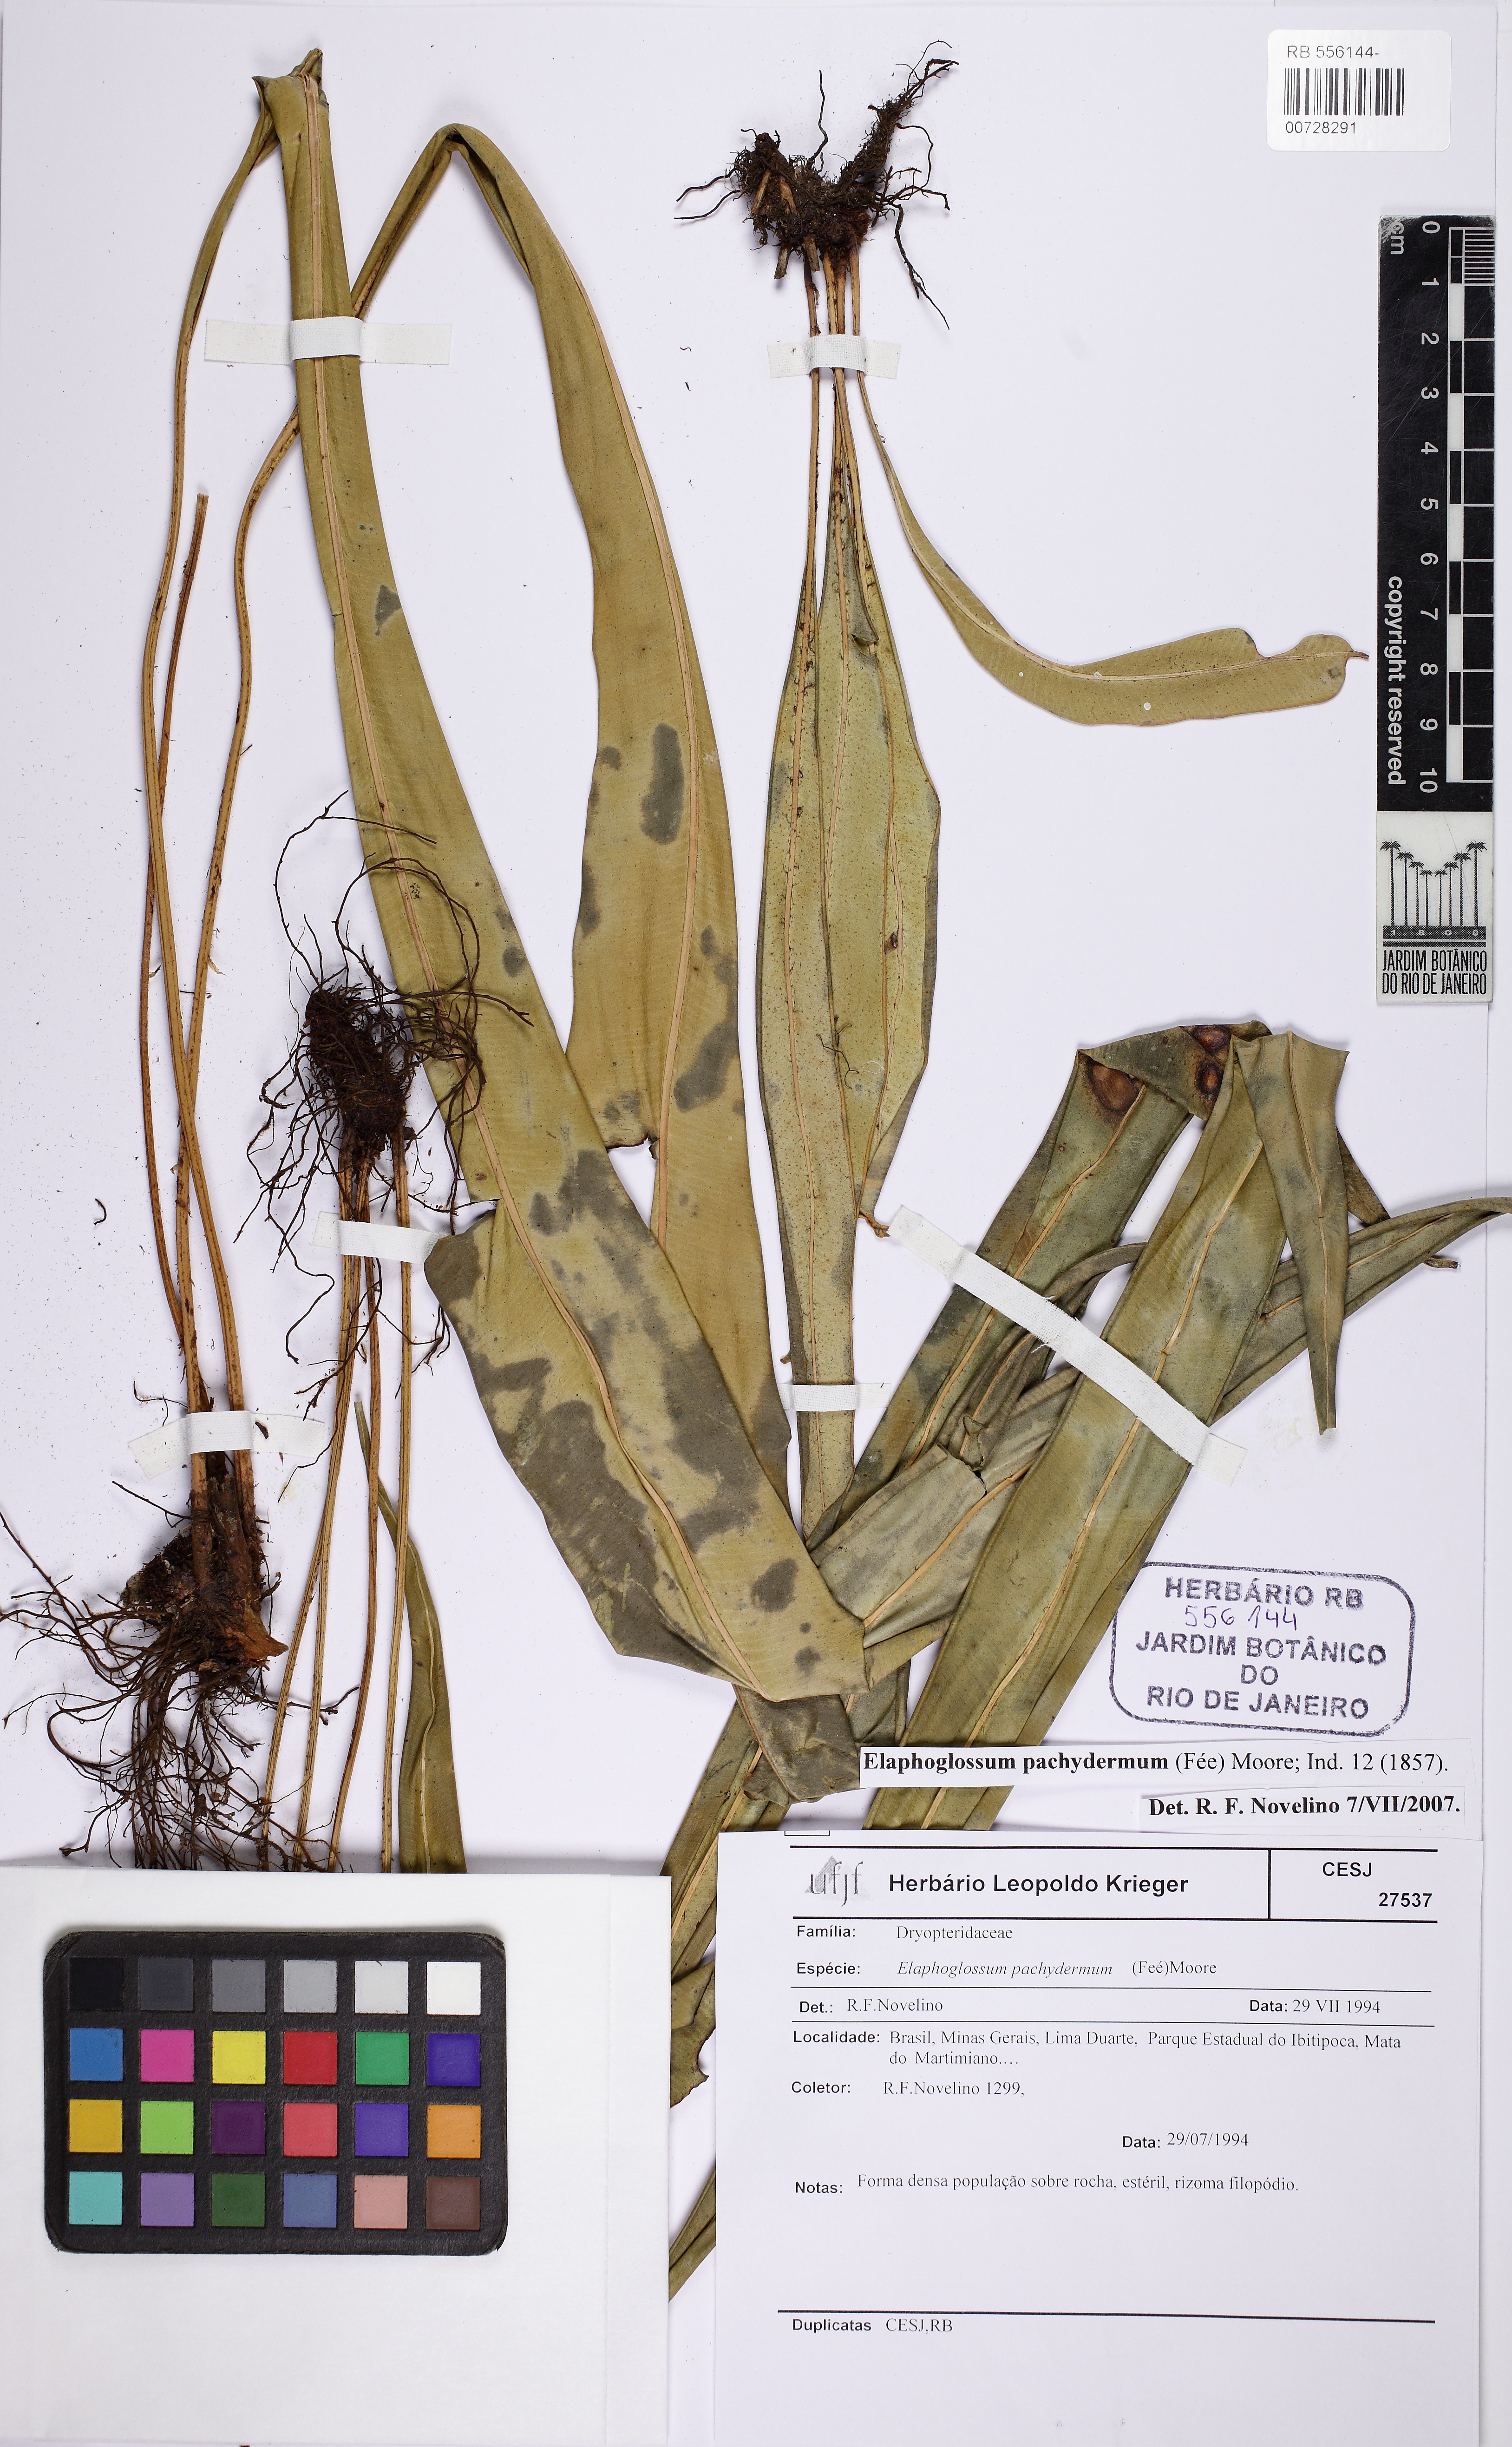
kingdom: Plantae
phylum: Tracheophyta
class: Polypodiopsida
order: Polypodiales
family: Dryopteridaceae
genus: Elaphoglossum
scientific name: Elaphoglossum pachydermum
